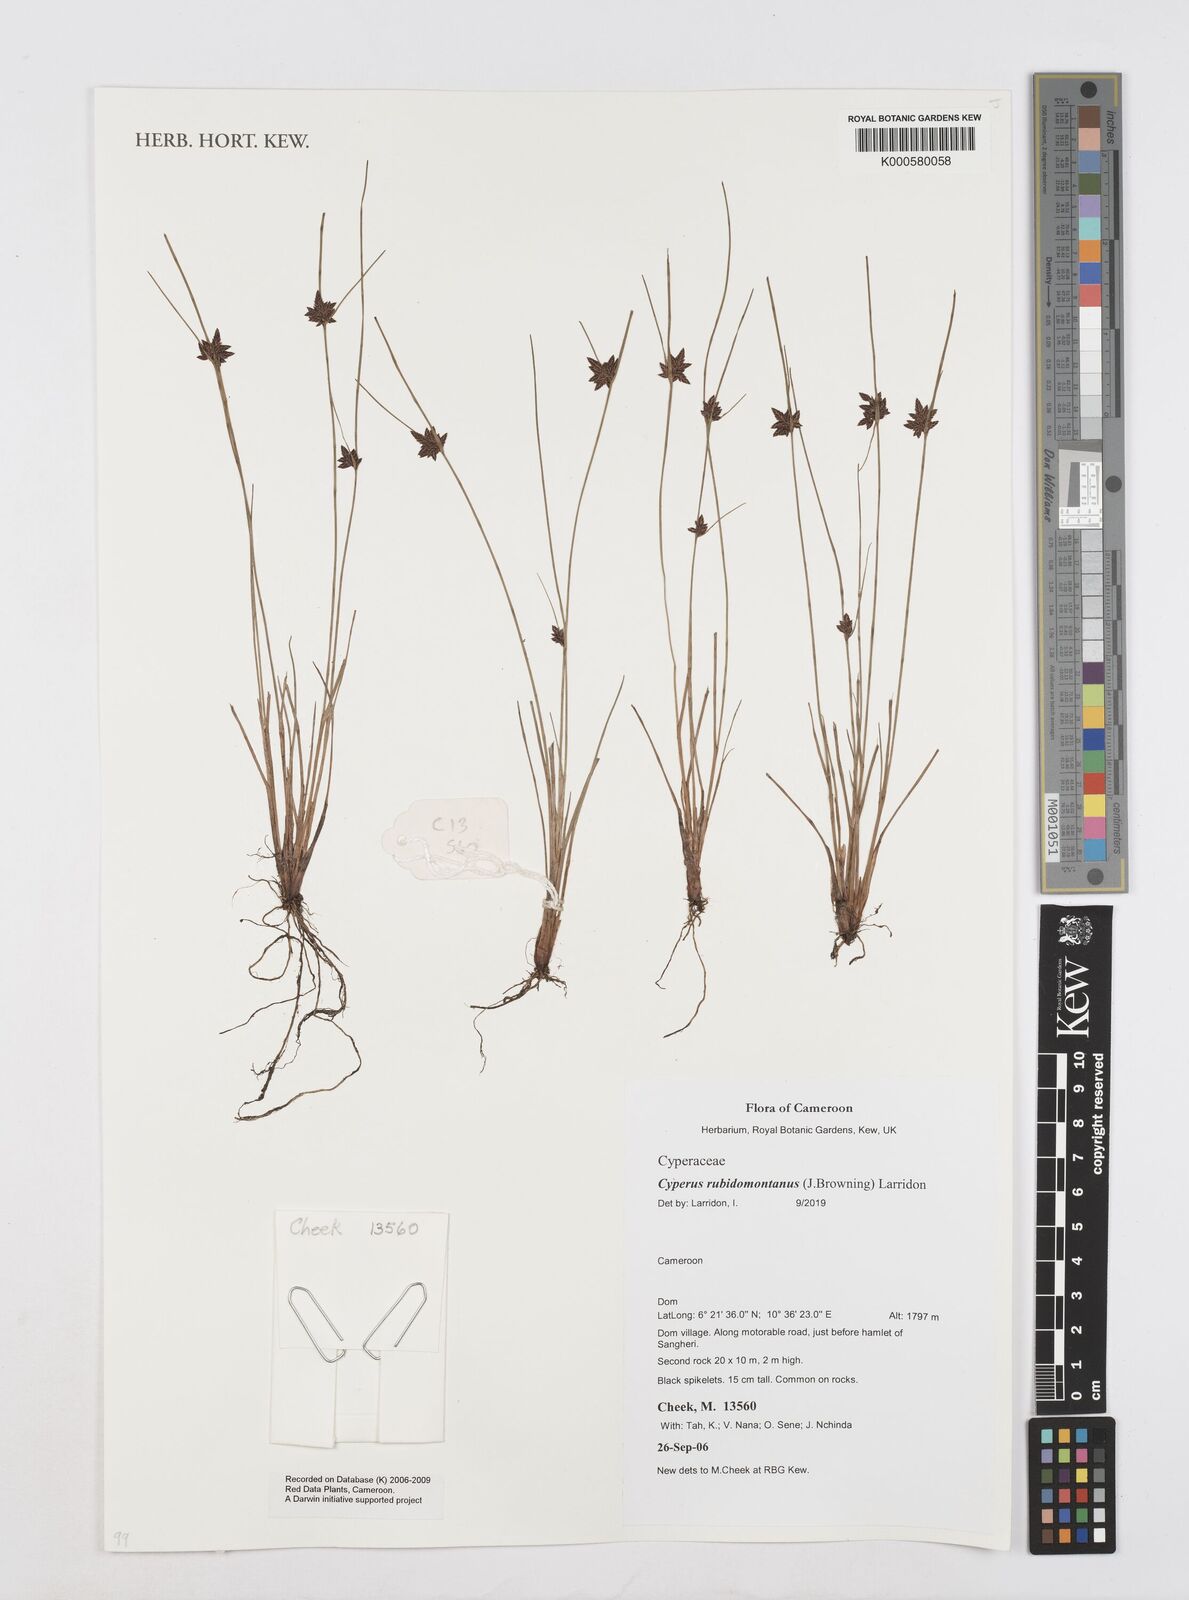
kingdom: Plantae
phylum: Tracheophyta
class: Liliopsida
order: Poales
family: Cyperaceae
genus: Cyperus
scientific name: Cyperus atrorubidus
